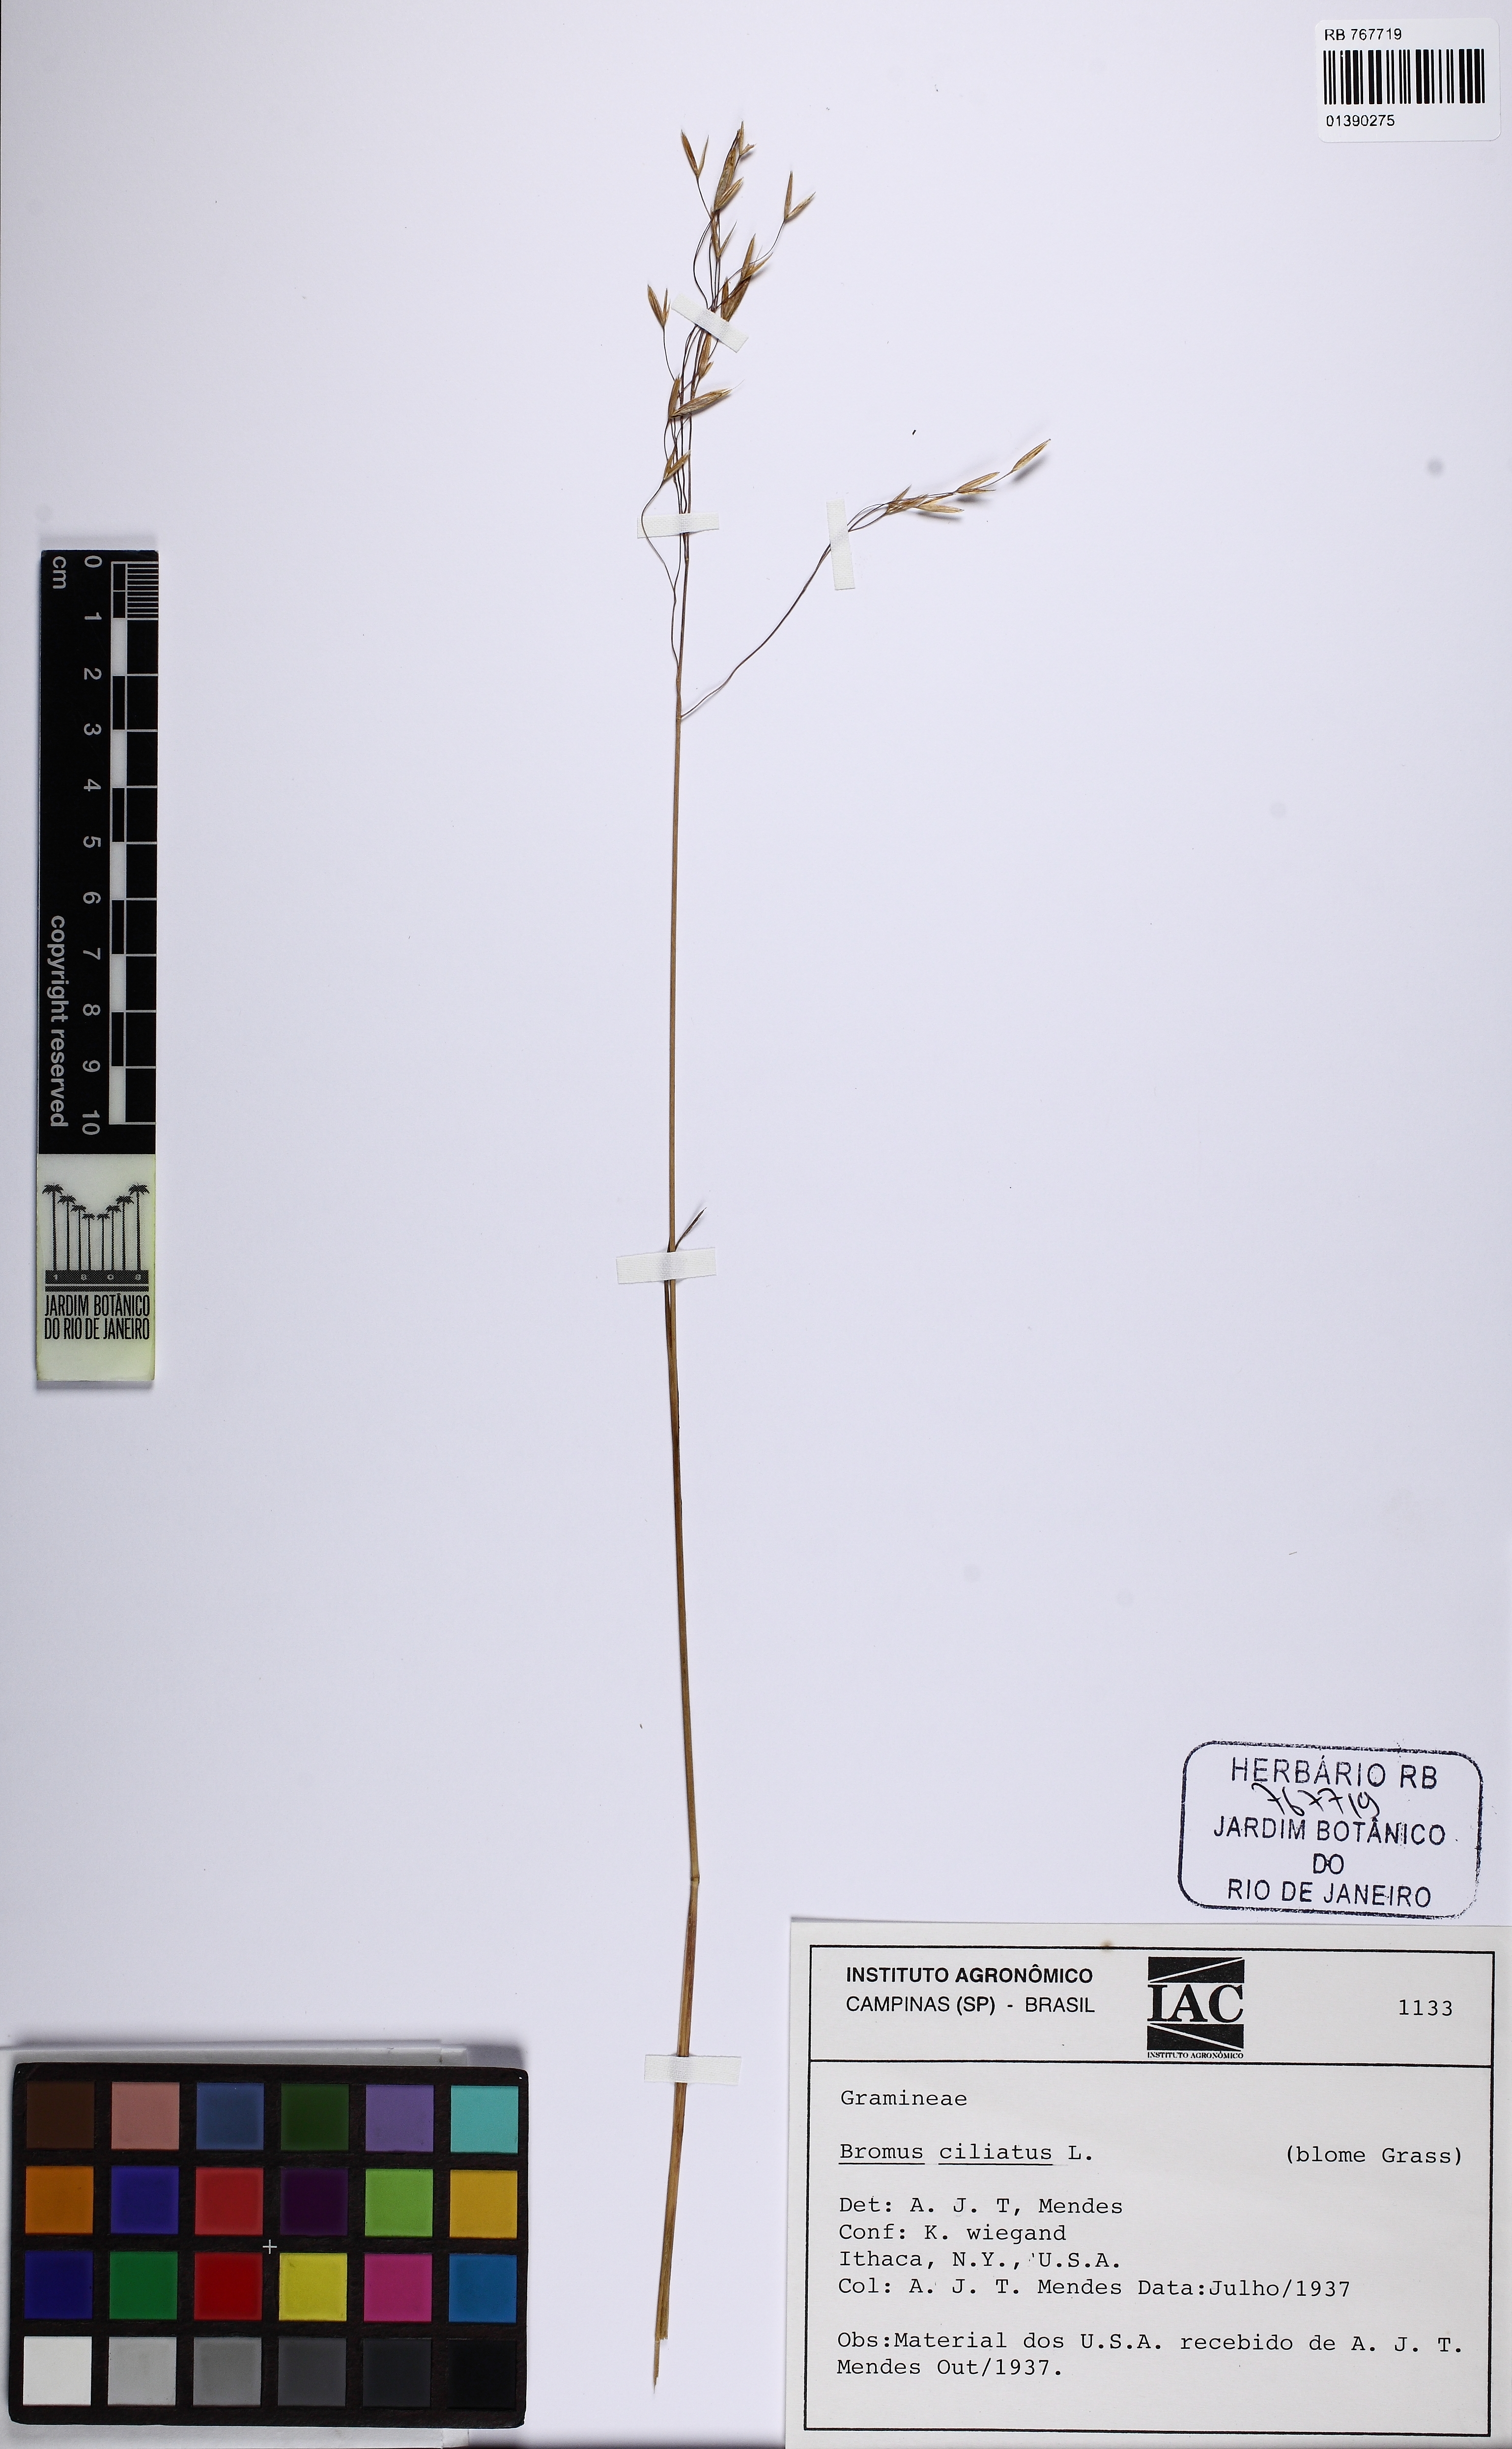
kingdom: Plantae
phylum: Tracheophyta
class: Liliopsida
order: Poales
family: Poaceae
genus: Bromus
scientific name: Bromus ciliatus
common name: Fringe brome
